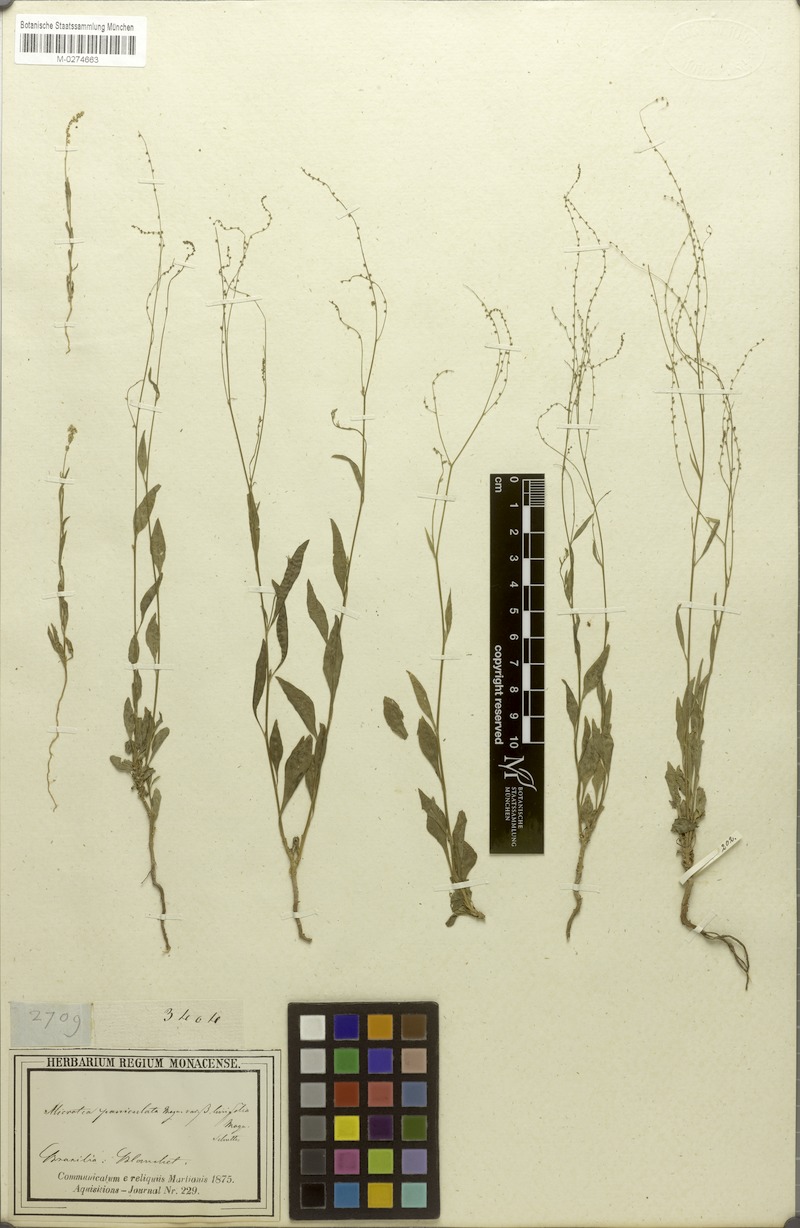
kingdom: Plantae
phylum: Tracheophyta
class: Magnoliopsida
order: Caryophyllales
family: Microteaceae
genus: Microtea
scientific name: Microtea paniculata
